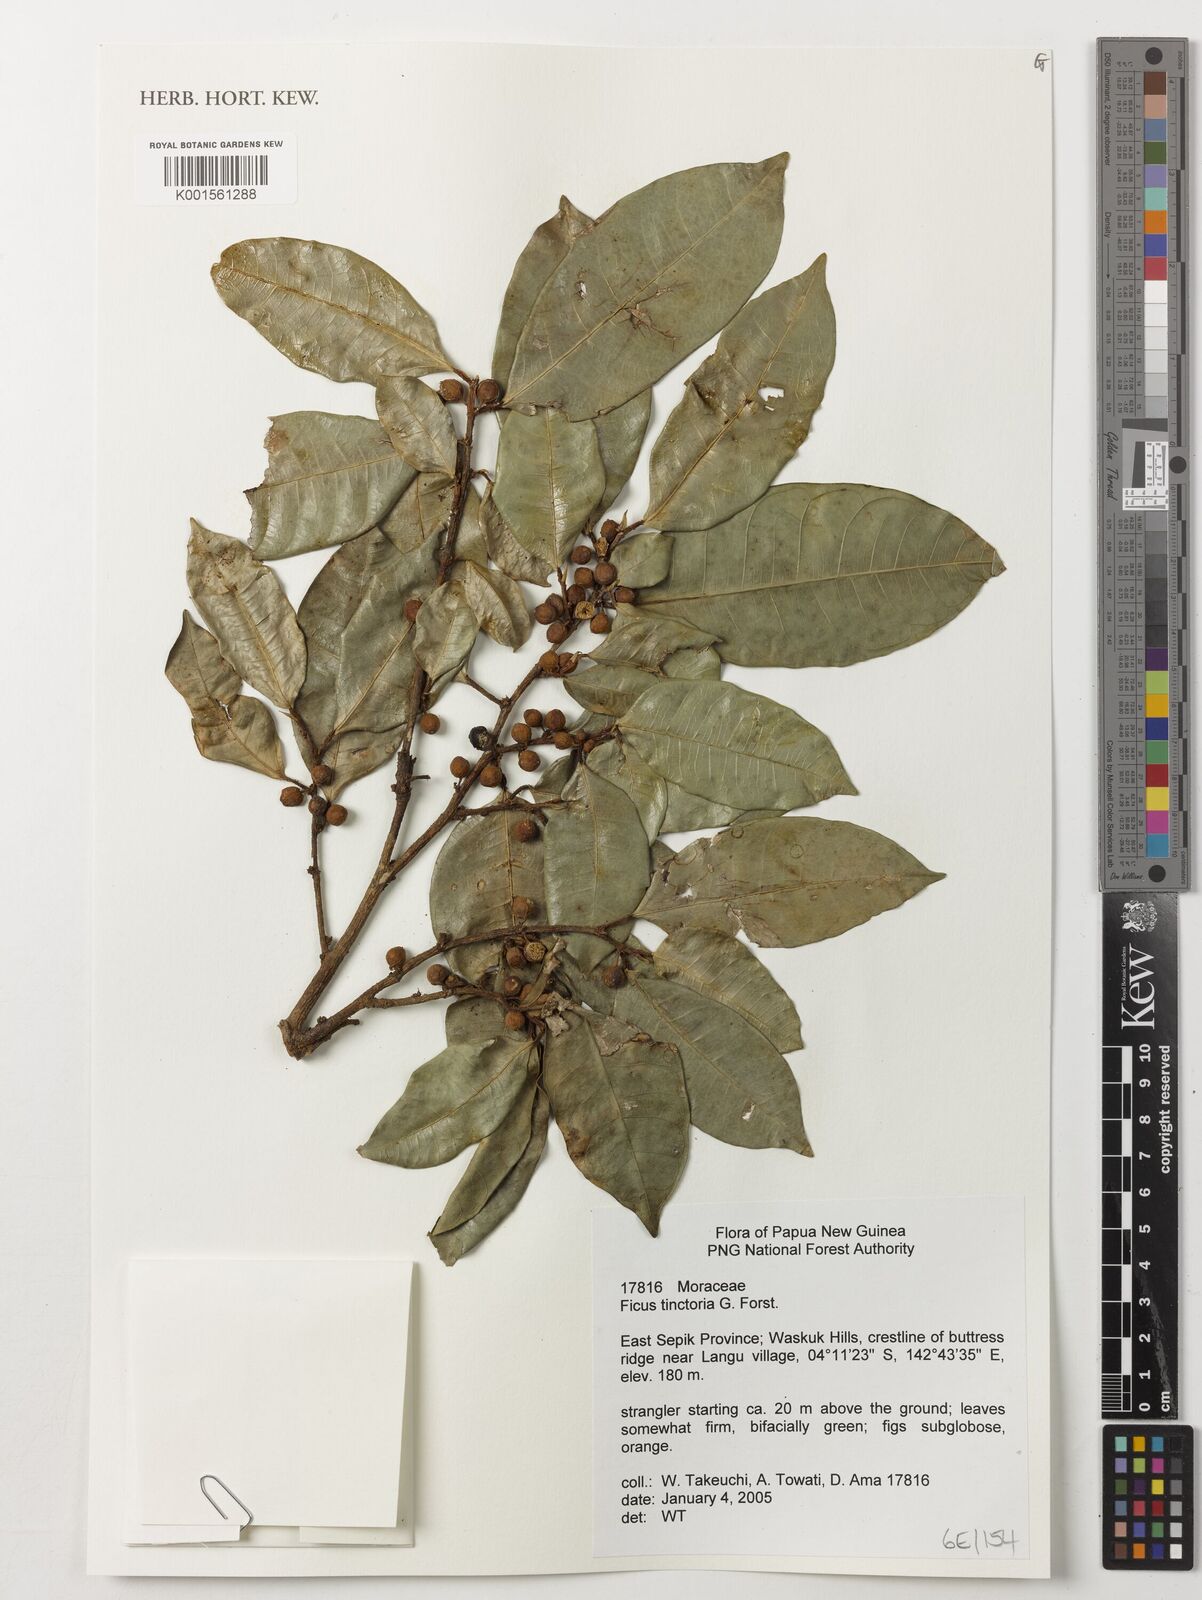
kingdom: Plantae
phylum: Tracheophyta
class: Magnoliopsida
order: Rosales
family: Moraceae
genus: Ficus
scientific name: Ficus tinctoria
